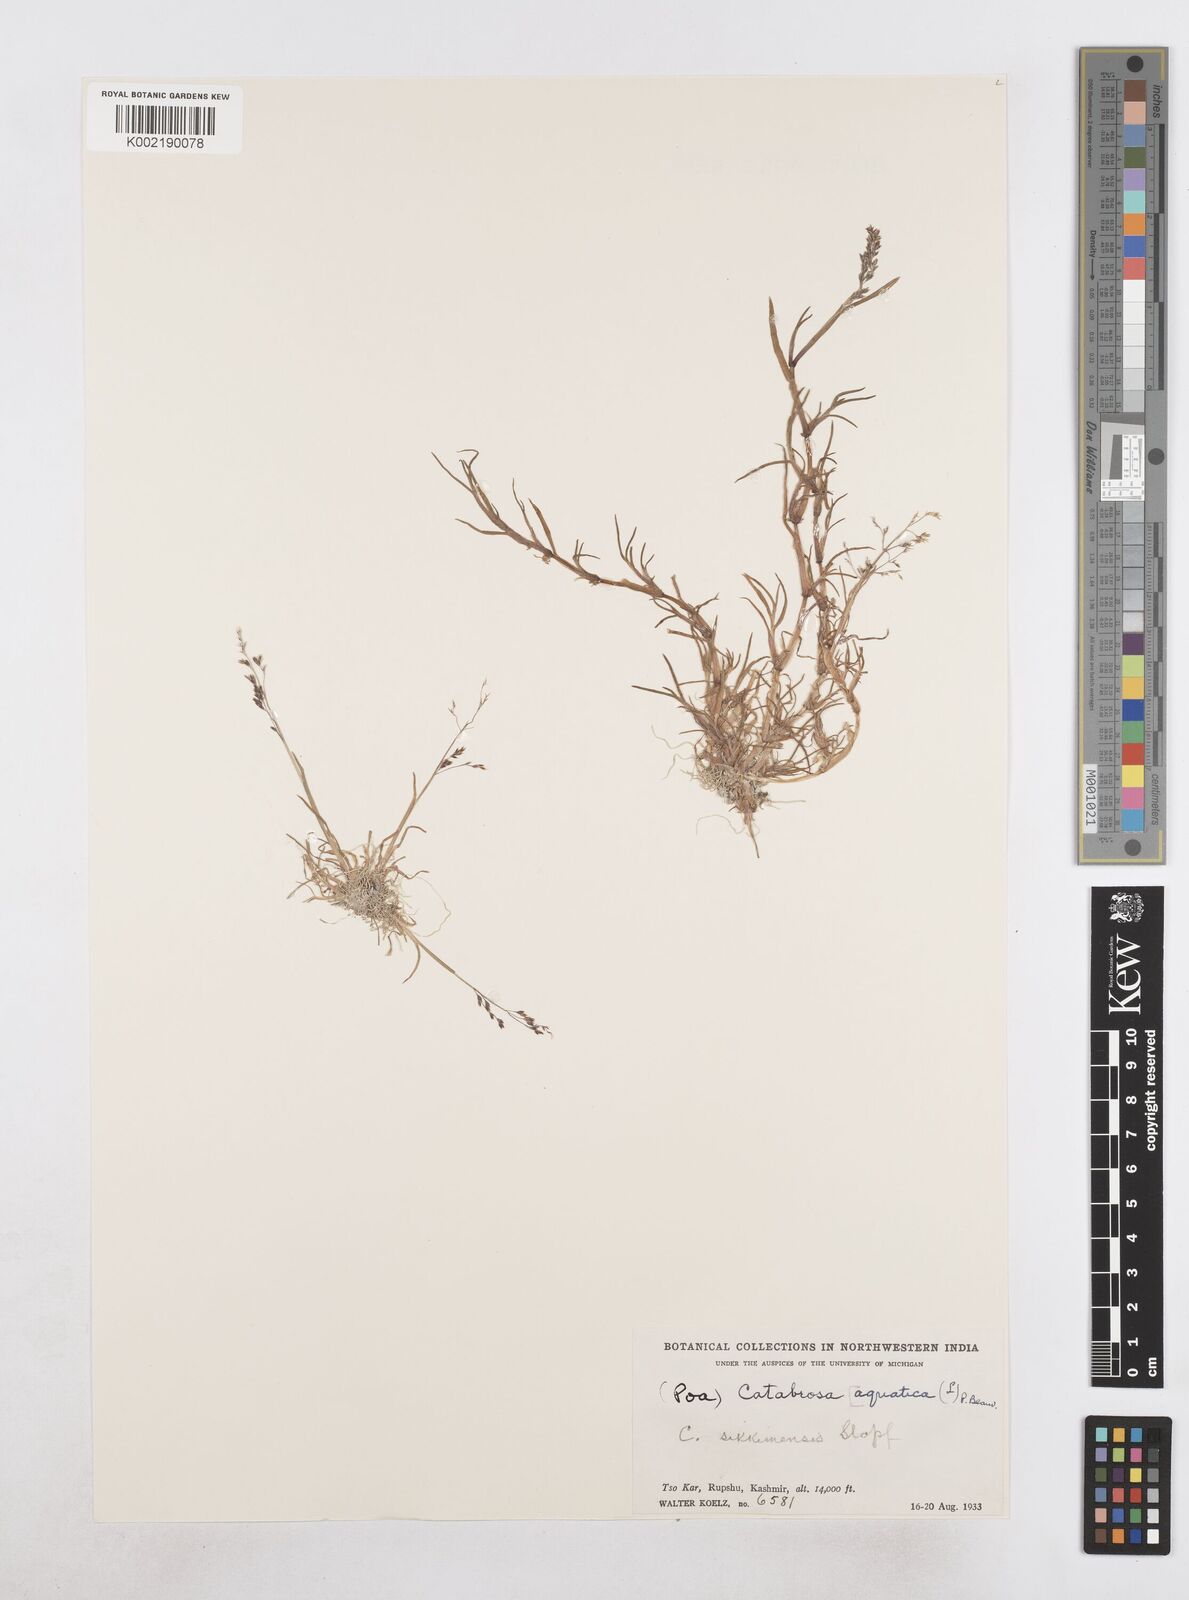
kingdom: Plantae
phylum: Tracheophyta
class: Liliopsida
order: Poales
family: Poaceae
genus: Catabrosa
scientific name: Catabrosa aquatica
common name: Whorl-grass
